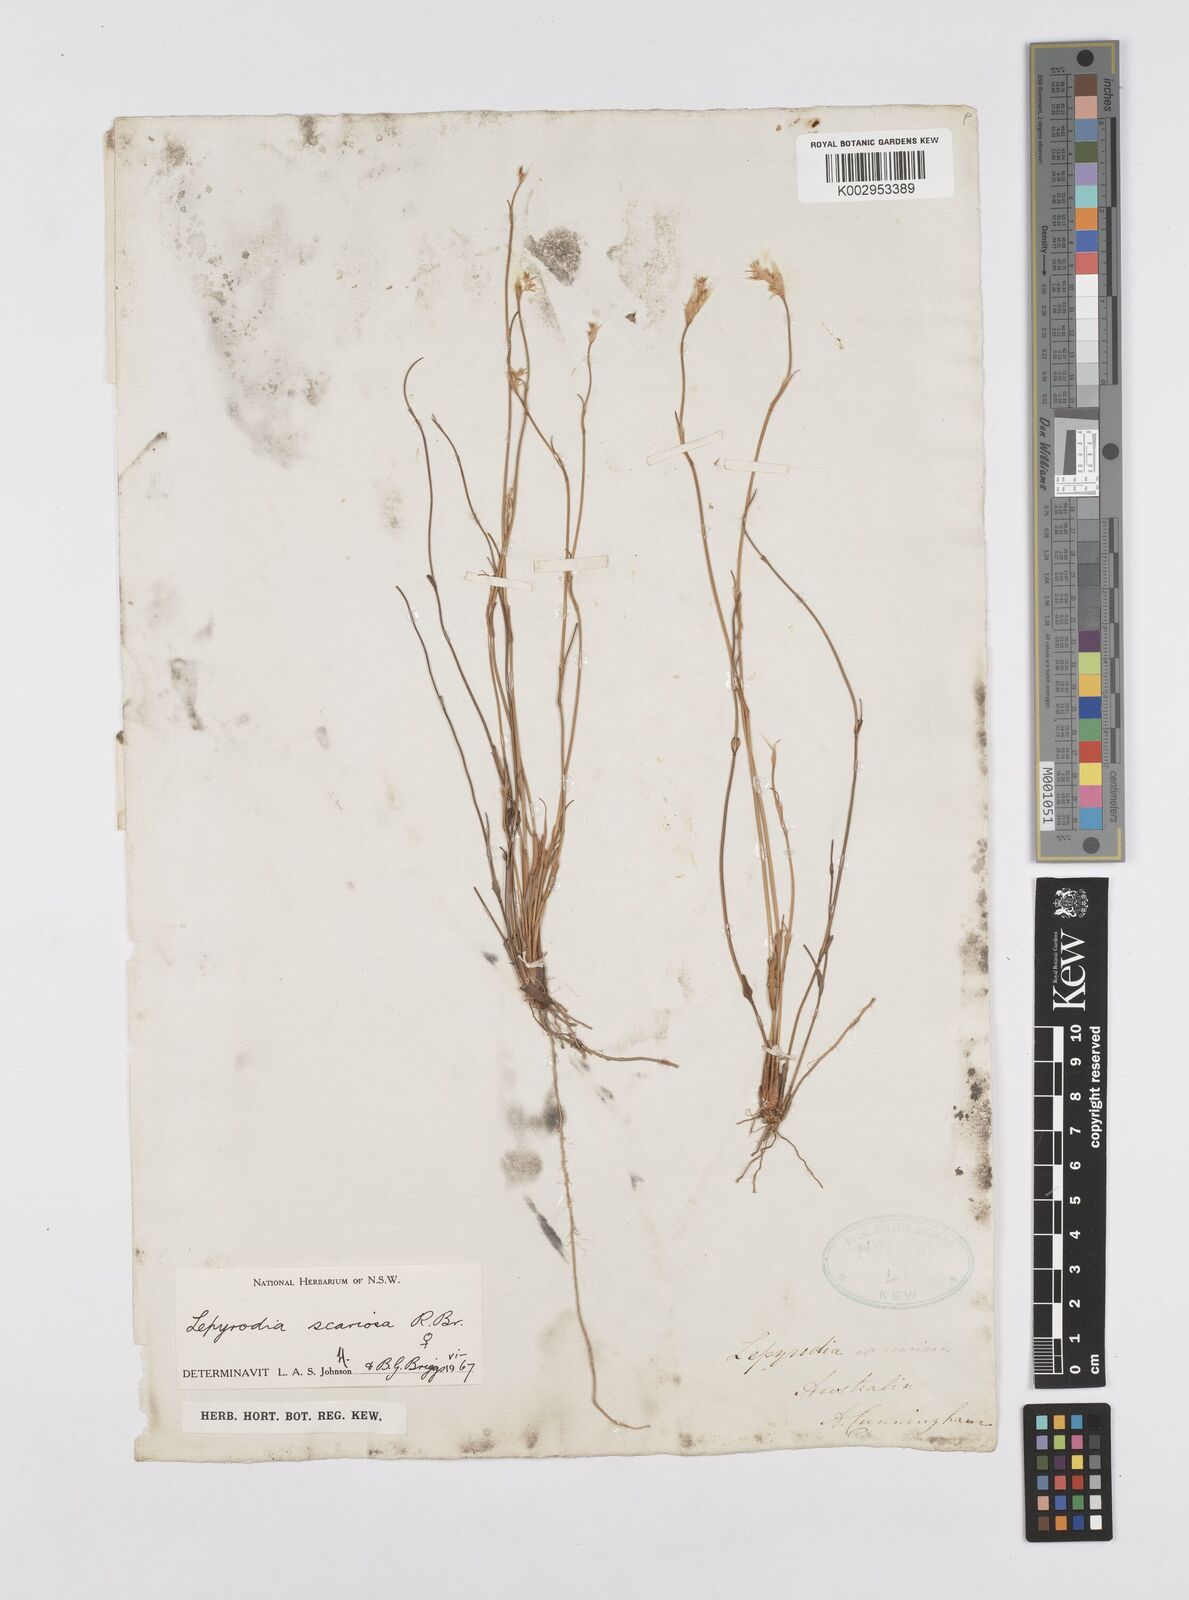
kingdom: Plantae
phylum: Tracheophyta
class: Liliopsida
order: Poales
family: Restionaceae
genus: Lepyrodia
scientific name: Lepyrodia scariosa
